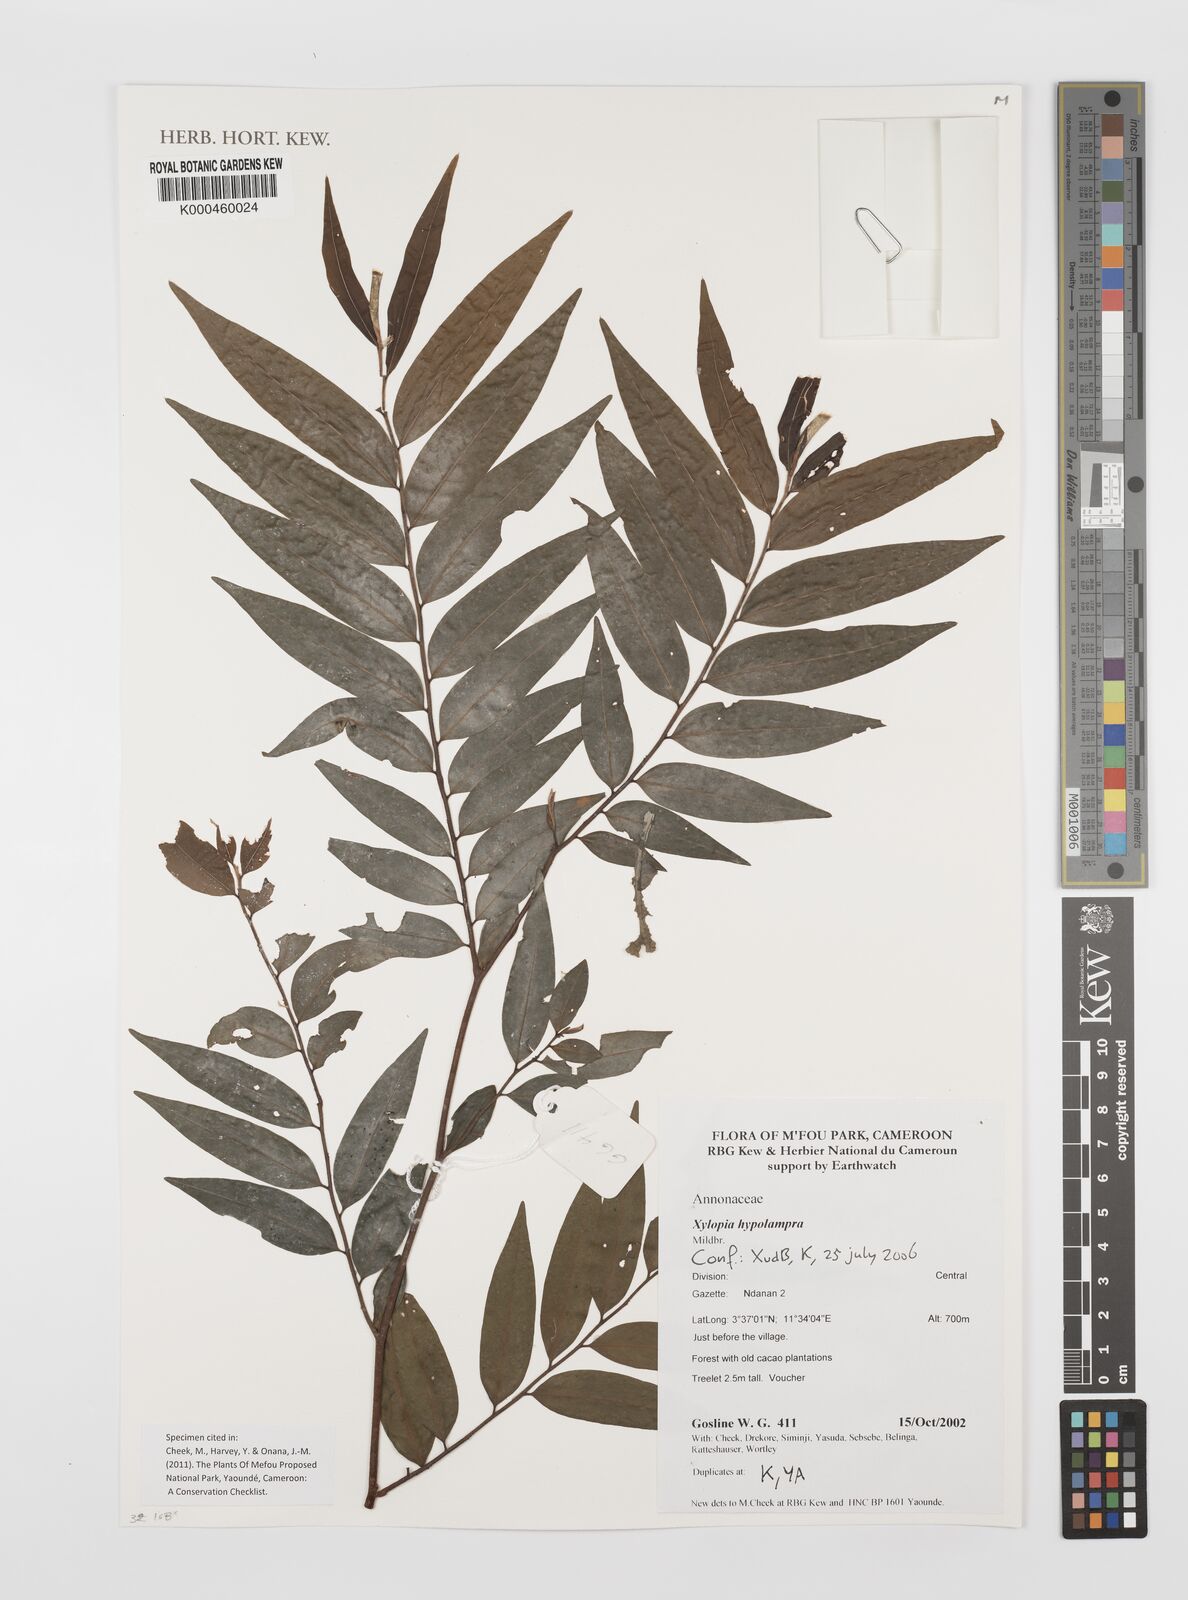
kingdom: Plantae
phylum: Tracheophyta
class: Magnoliopsida
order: Magnoliales
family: Annonaceae
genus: Xylopia
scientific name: Xylopia hypolampra
